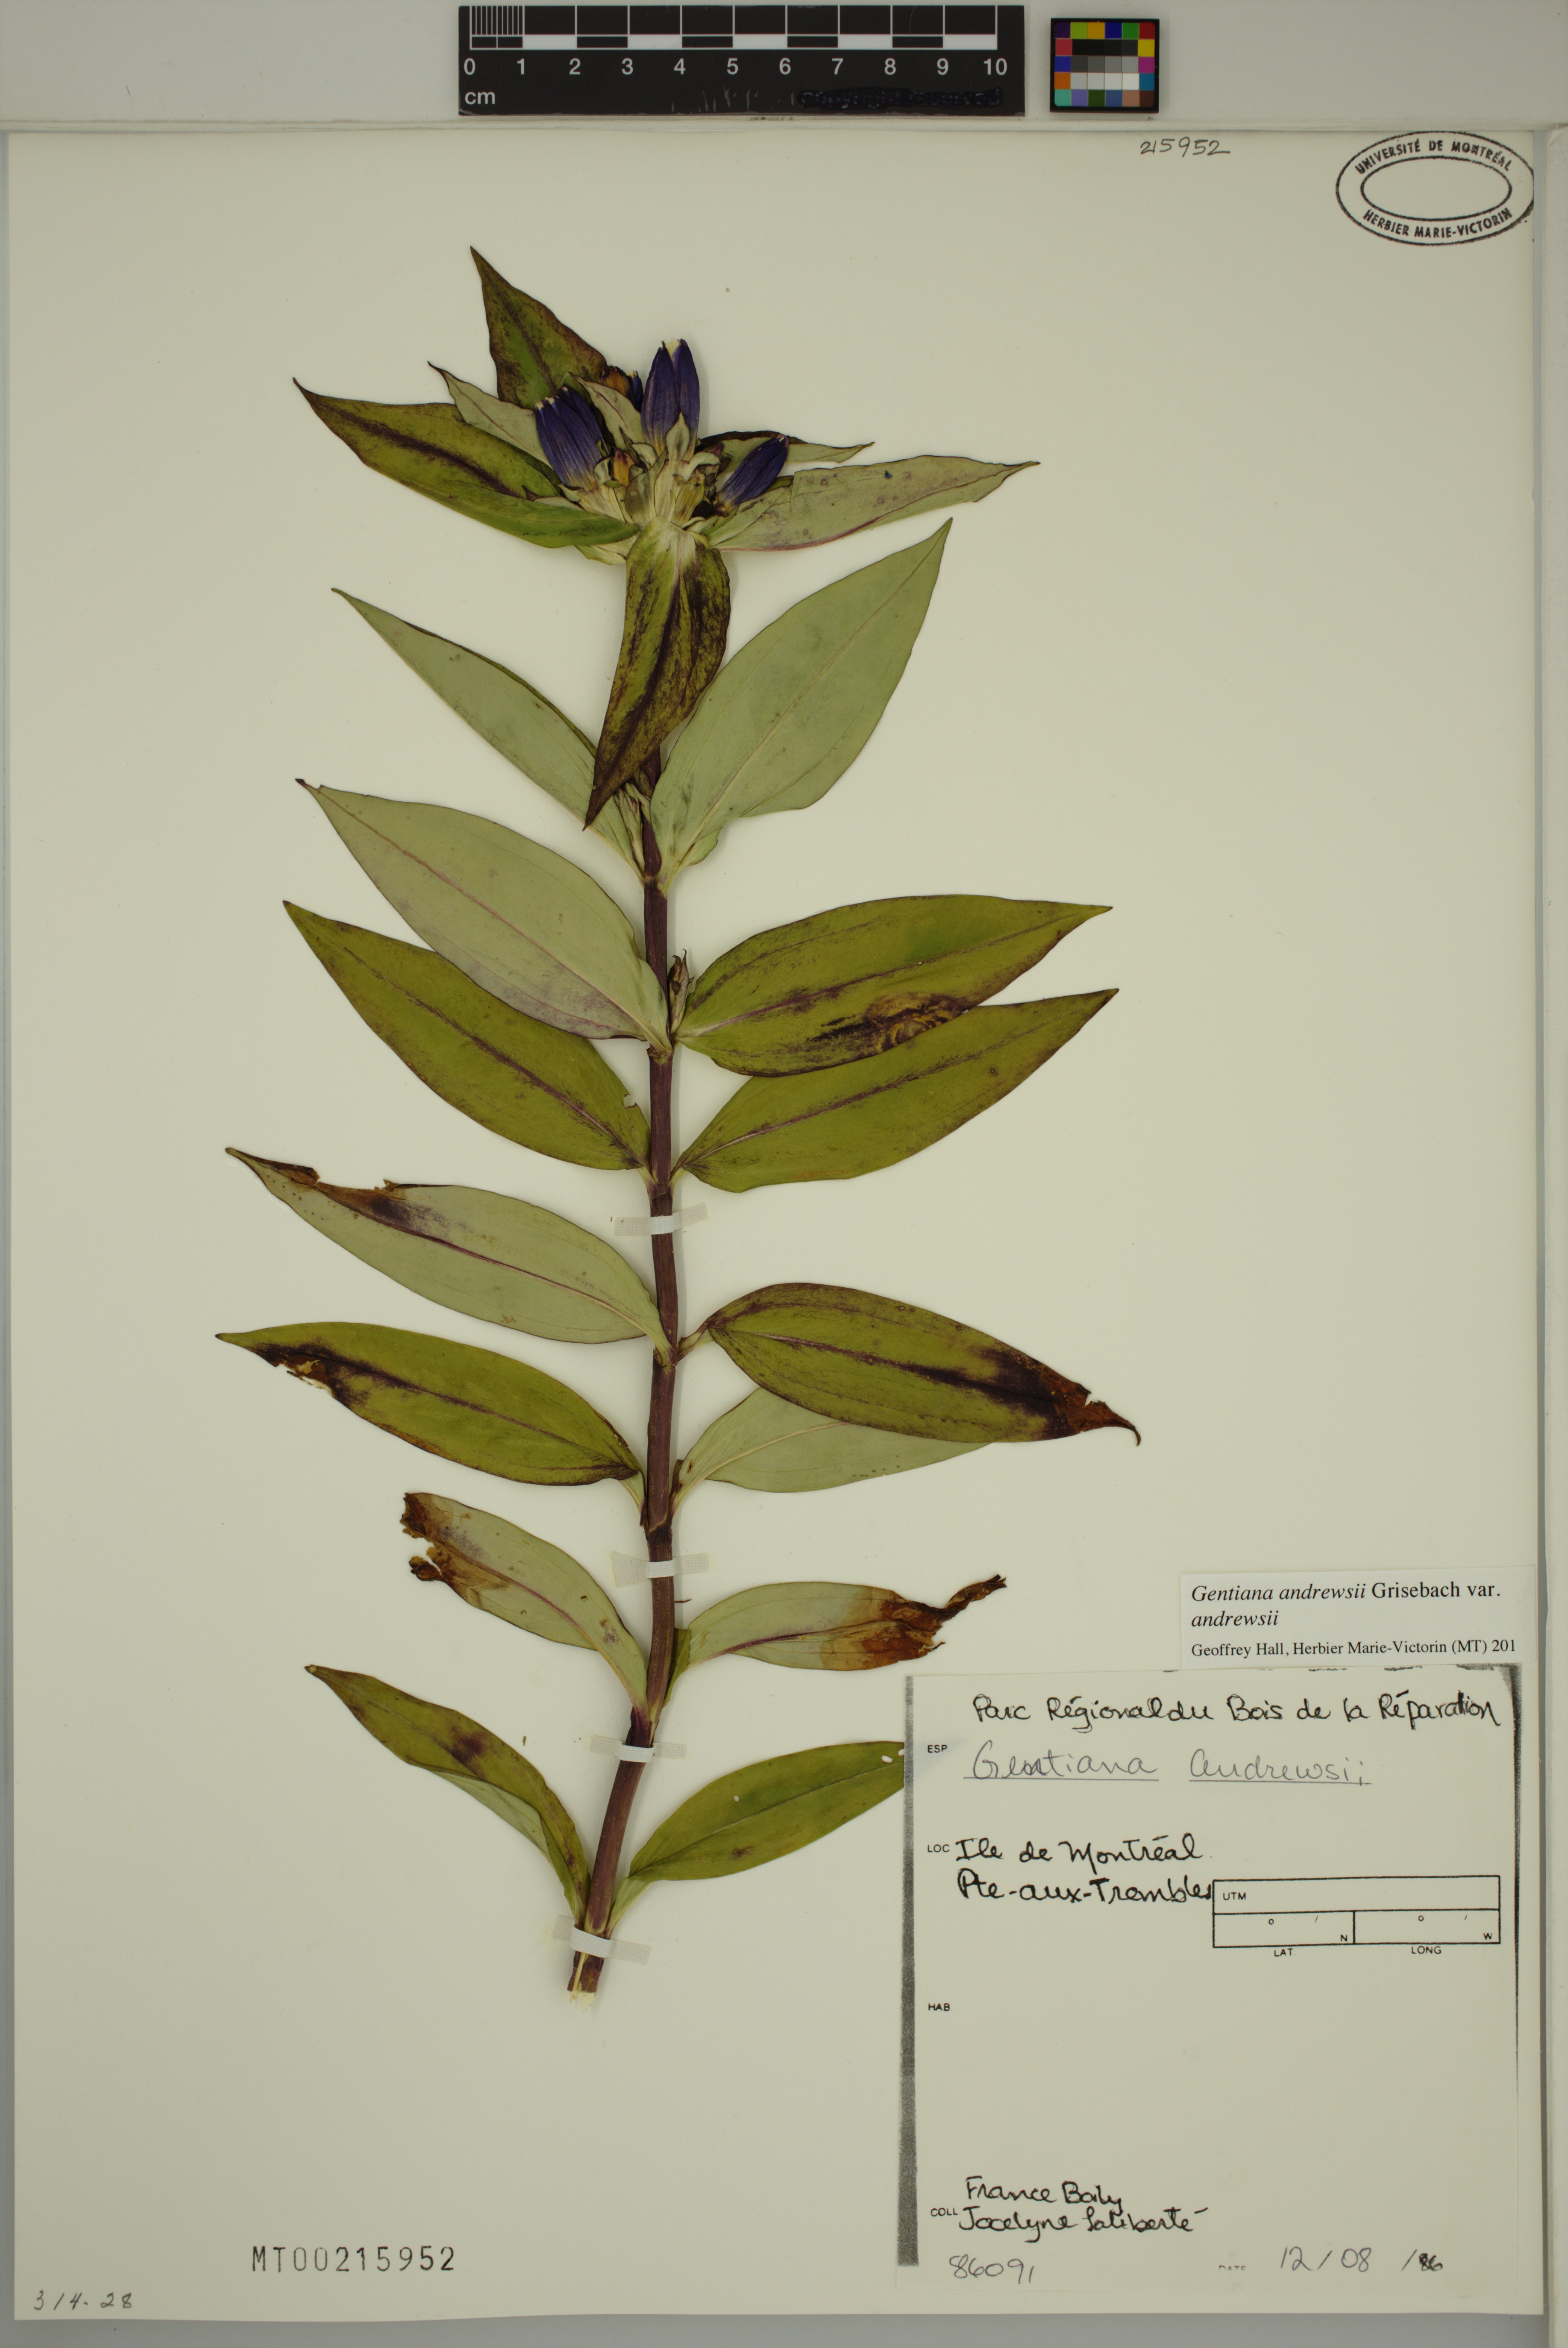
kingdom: Plantae
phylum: Tracheophyta
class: Magnoliopsida
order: Gentianales
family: Gentianaceae
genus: Gentiana
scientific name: Gentiana andrewsii
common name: Bottle gentian
